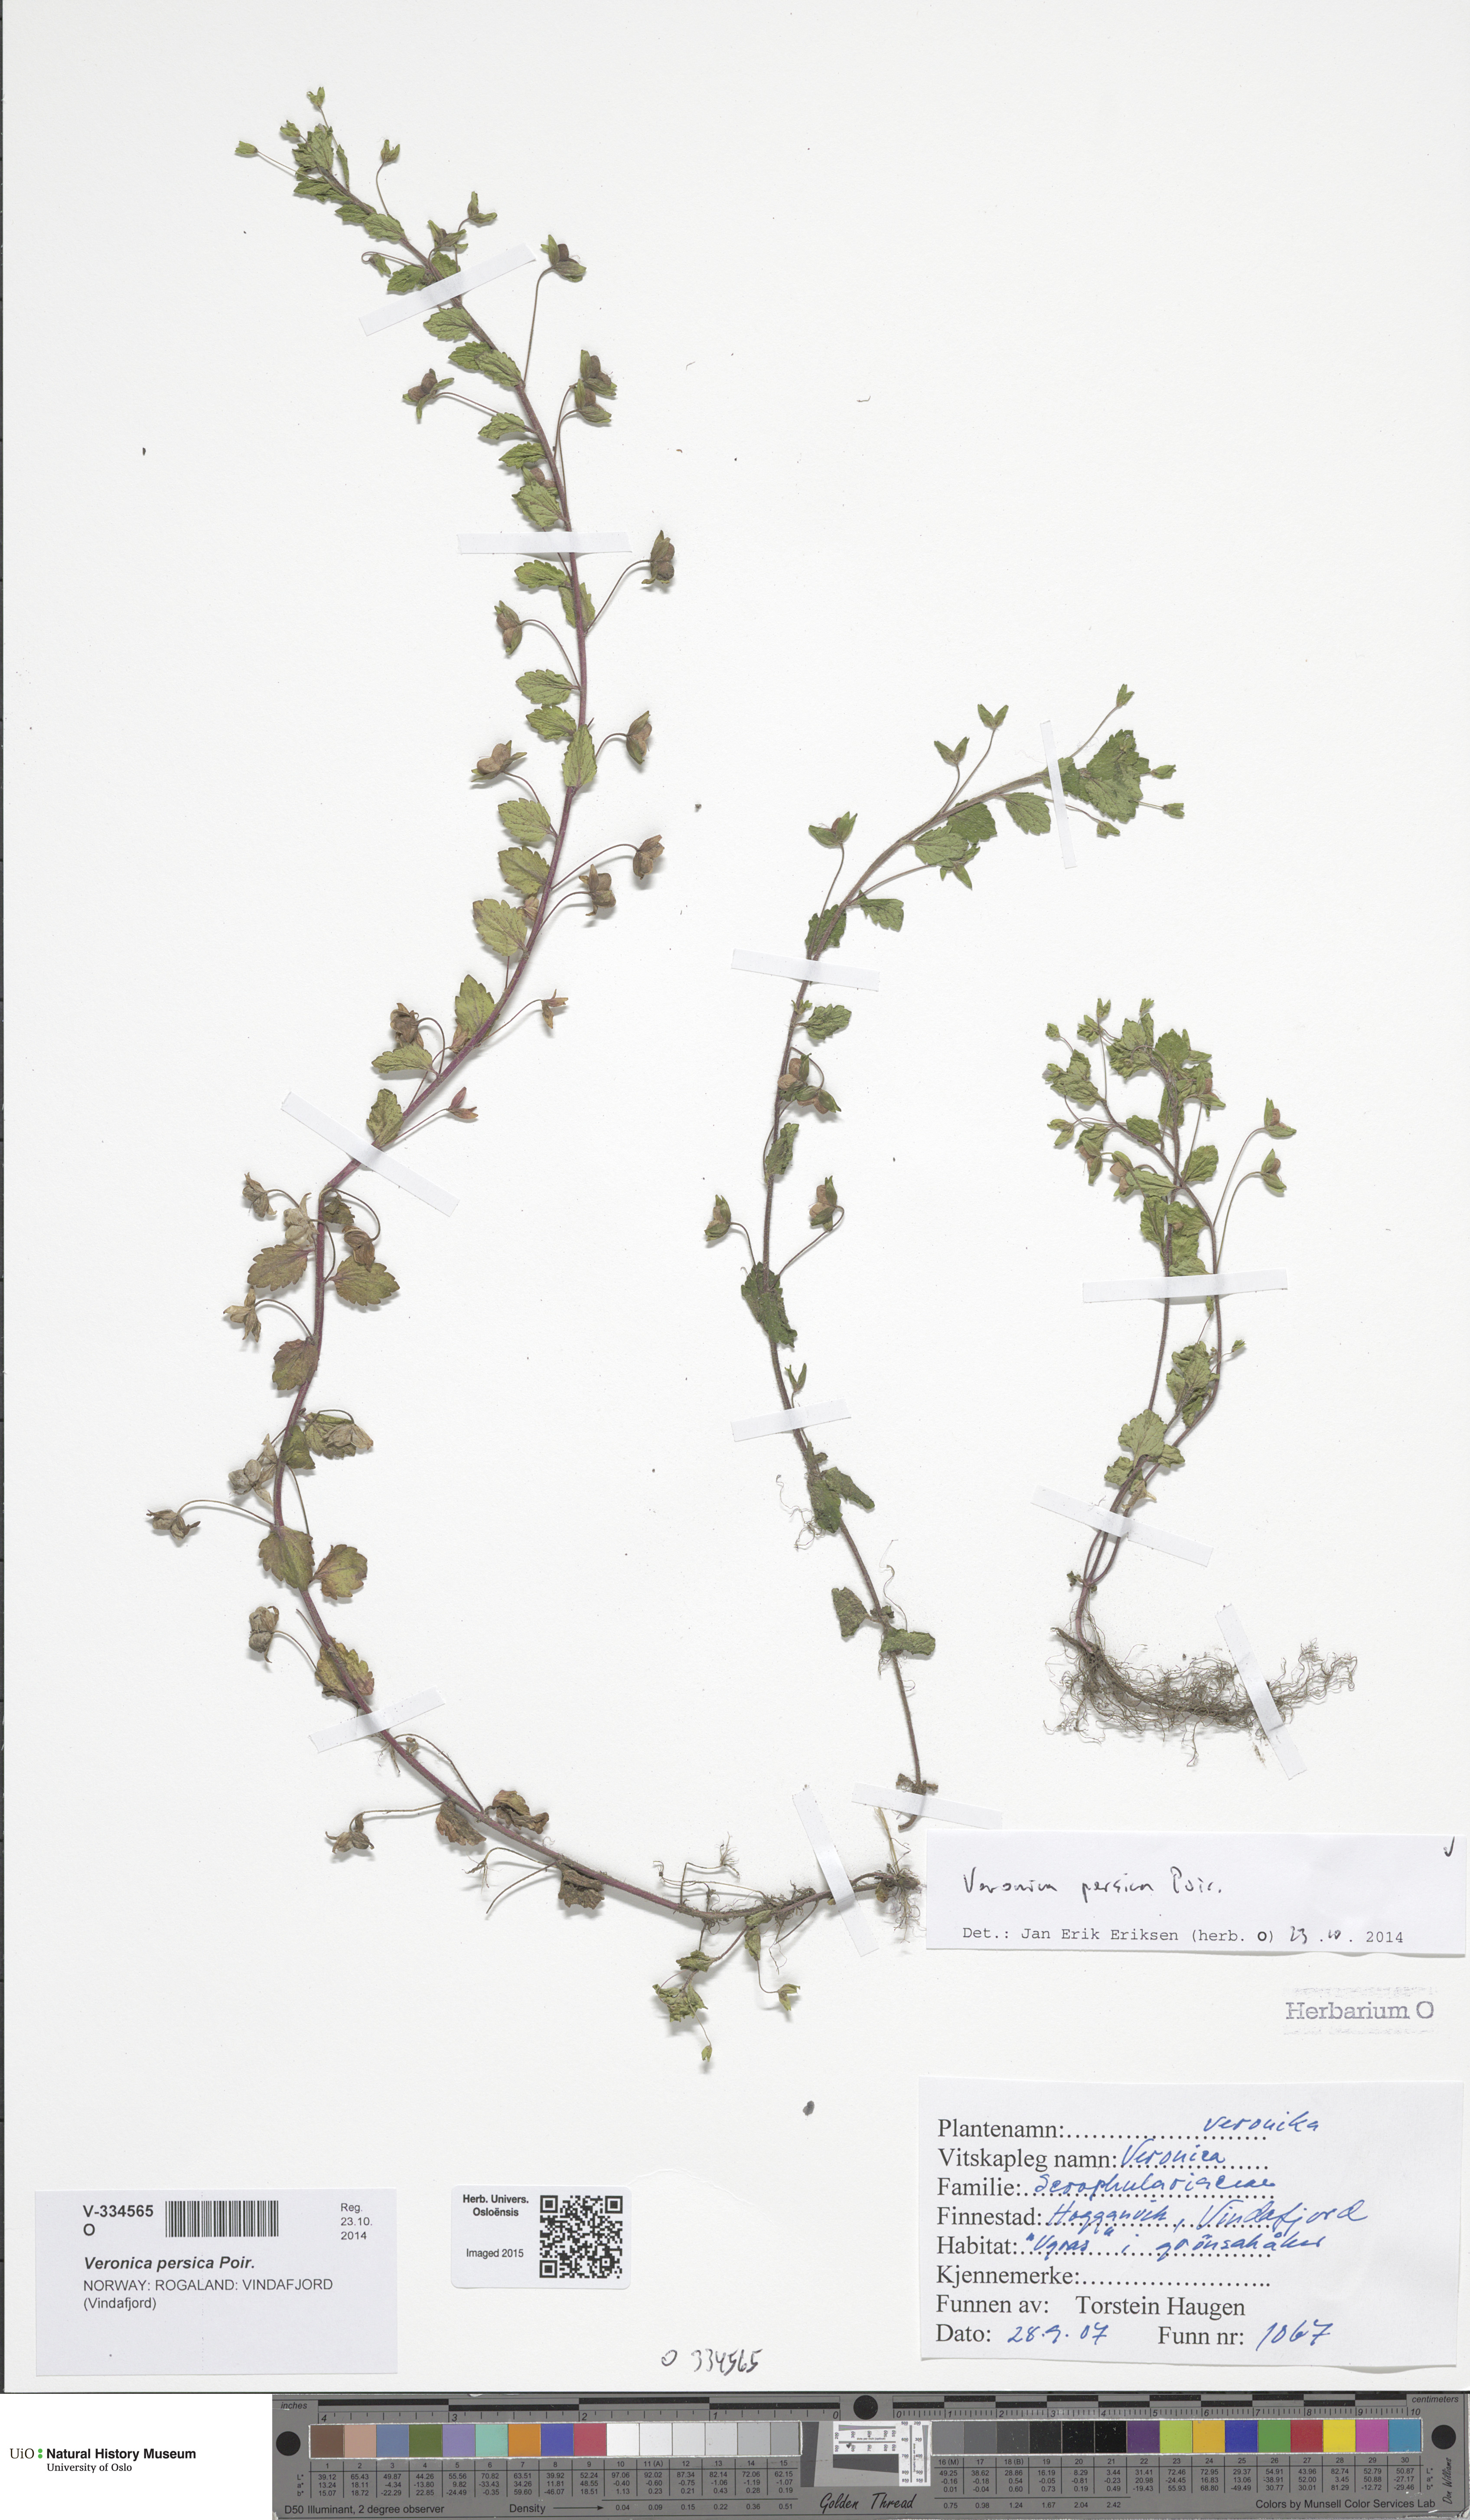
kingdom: Plantae
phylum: Tracheophyta
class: Magnoliopsida
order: Lamiales
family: Plantaginaceae
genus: Veronica
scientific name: Veronica persica
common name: Common field-speedwell
